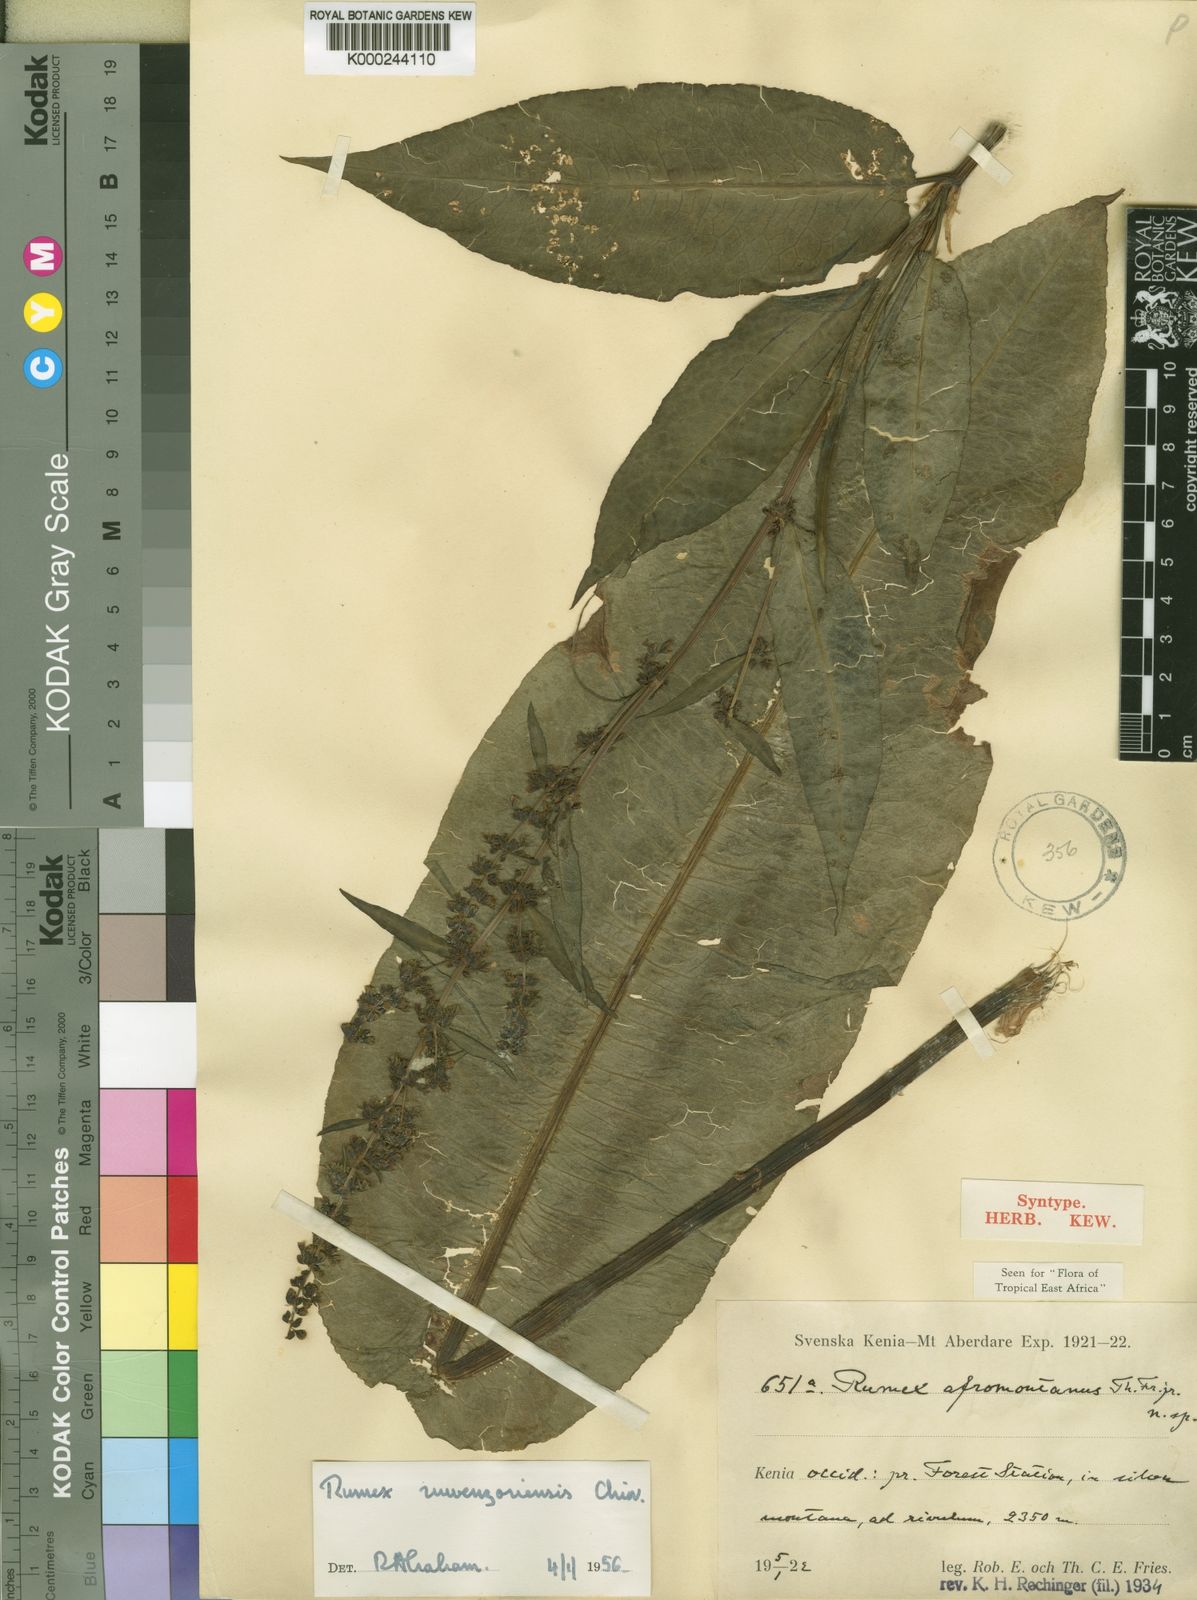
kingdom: Plantae
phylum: Tracheophyta
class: Magnoliopsida
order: Caryophyllales
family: Polygonaceae
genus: Rumex
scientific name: Rumex ruwenzoriensis
